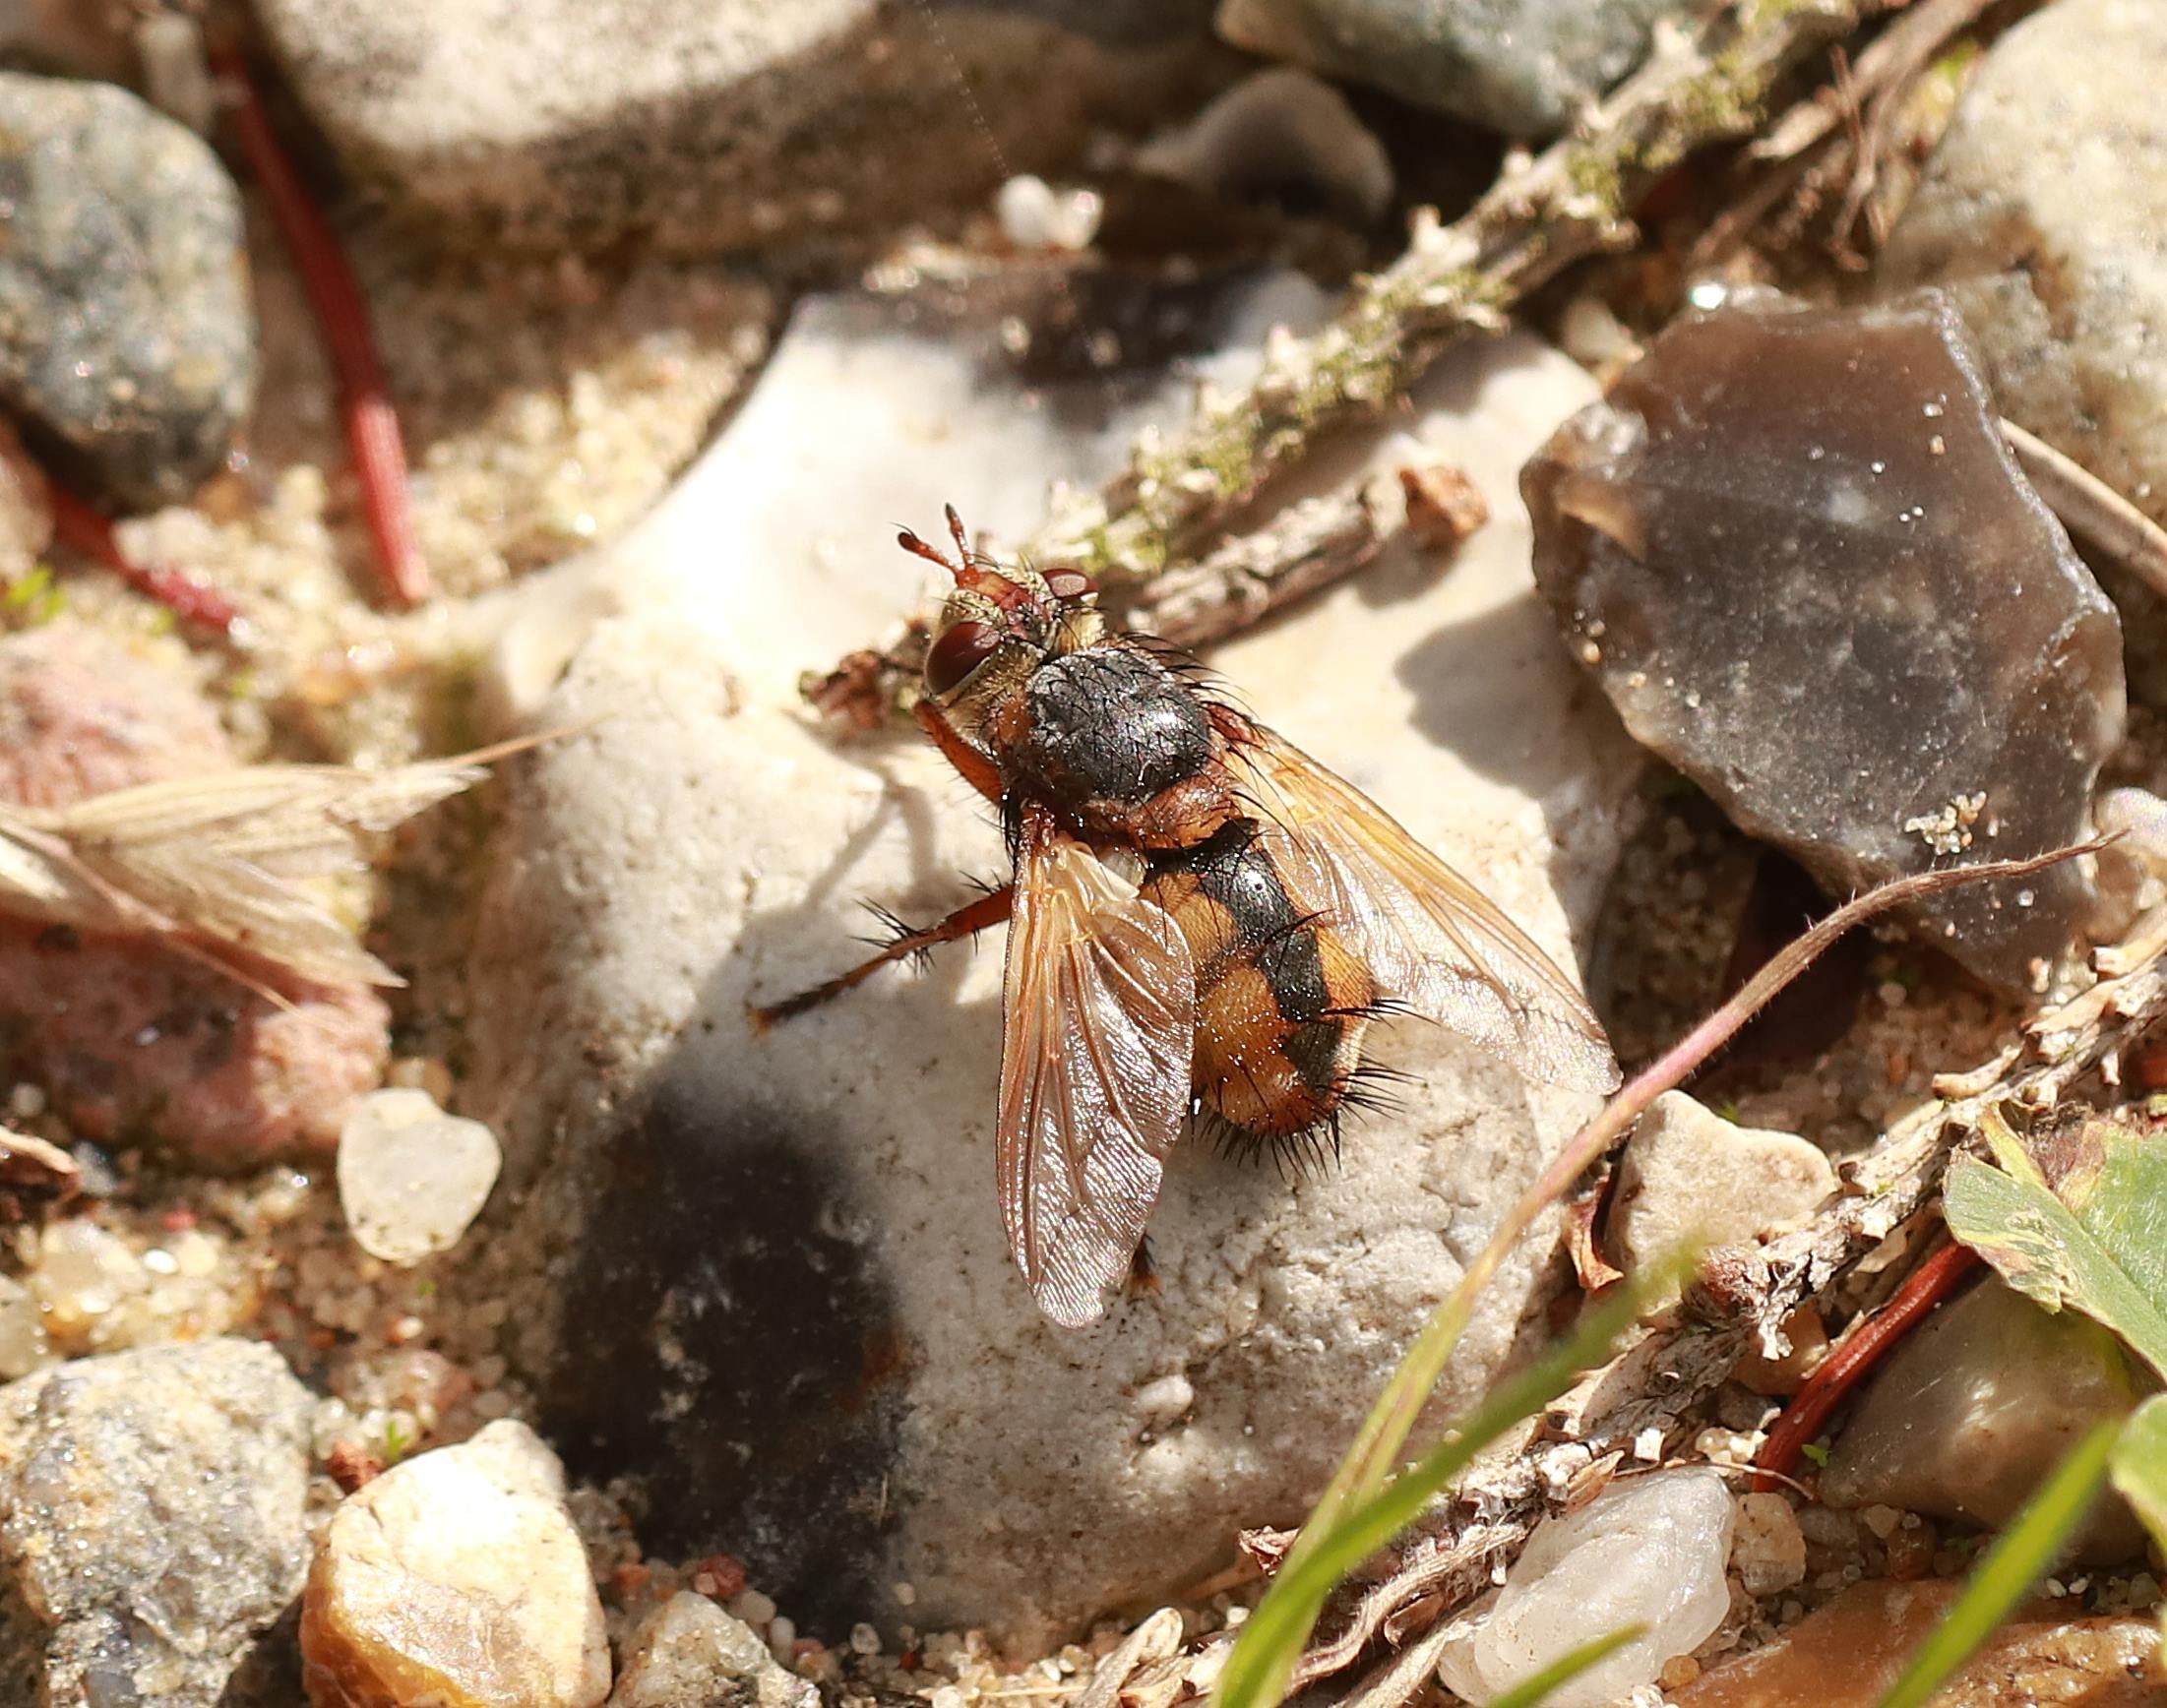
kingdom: Animalia
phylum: Arthropoda
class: Insecta
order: Diptera
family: Tachinidae
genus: Tachina
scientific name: Tachina fera
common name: Mellemfluen oskar
